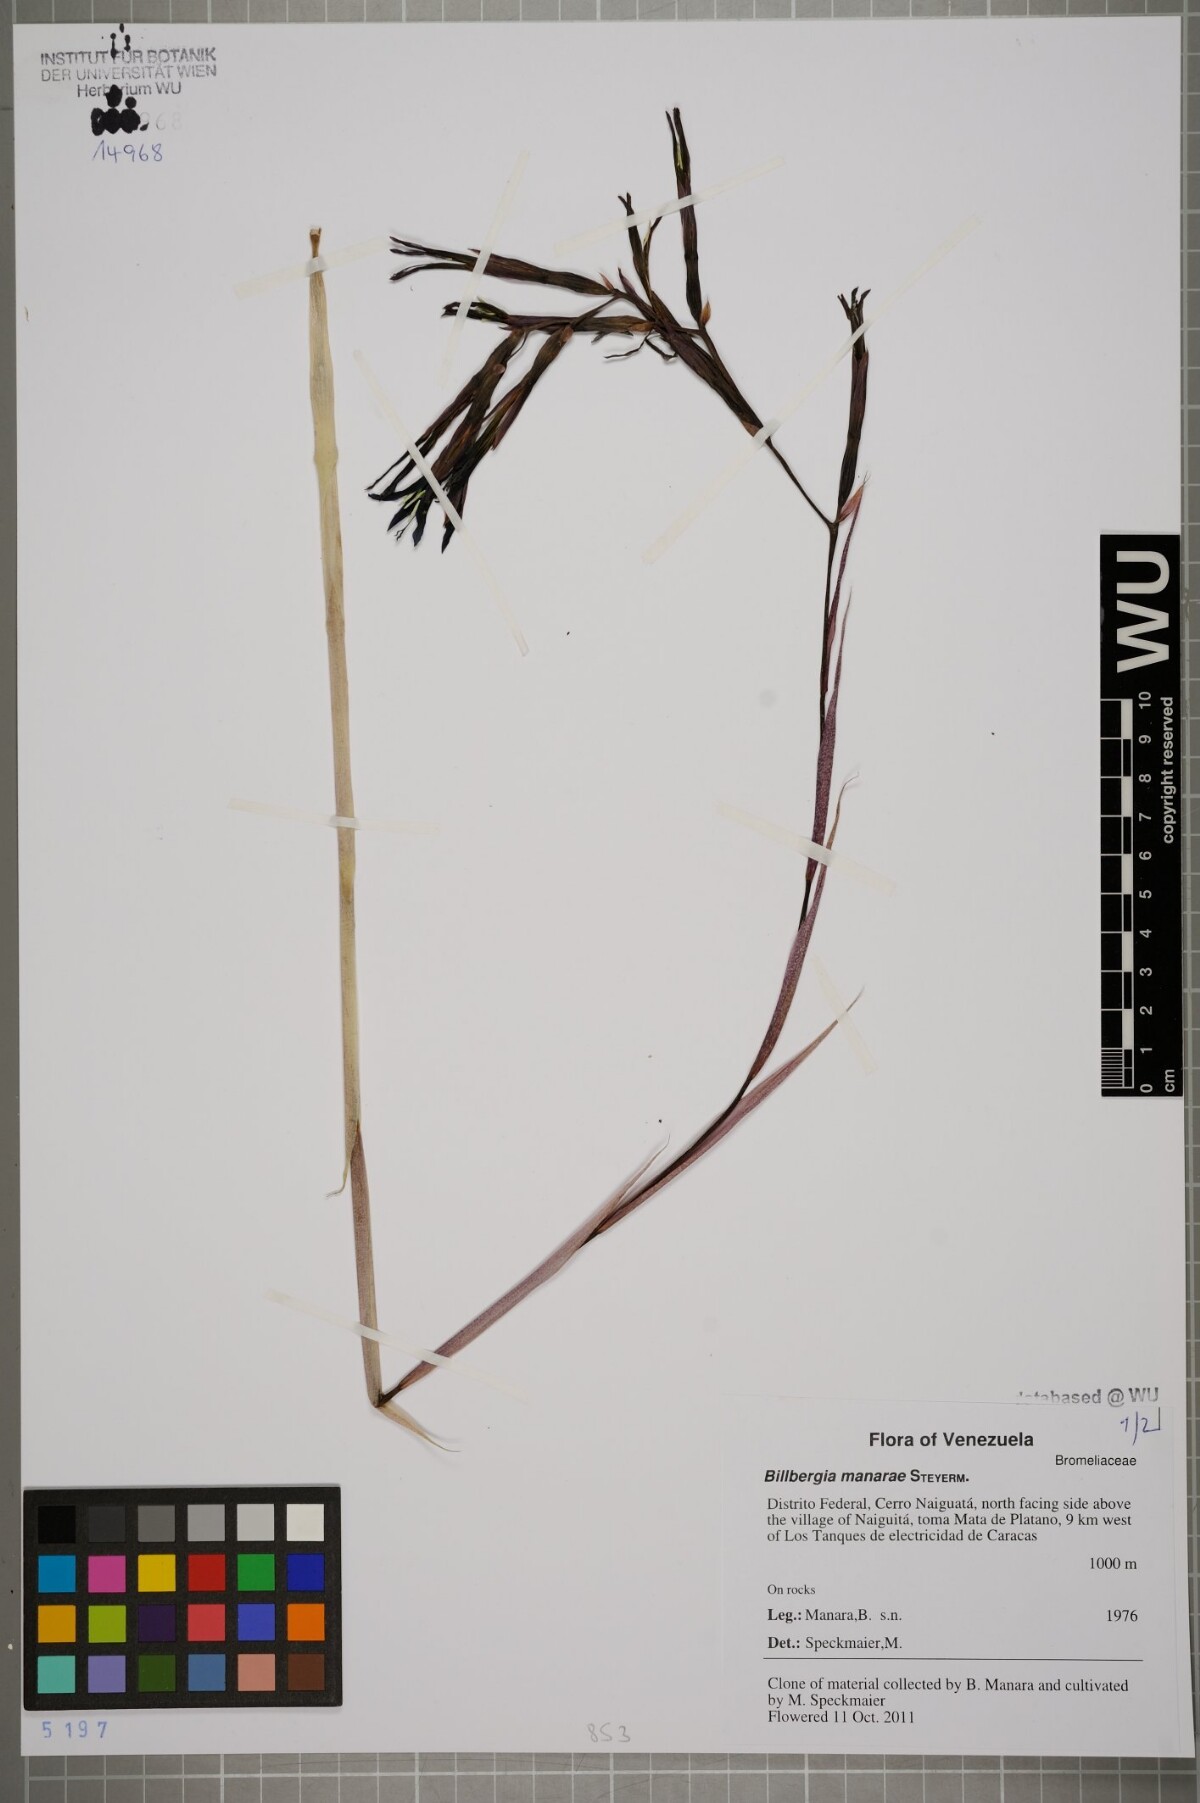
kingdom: Plantae
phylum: Tracheophyta
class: Liliopsida
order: Poales
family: Bromeliaceae
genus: Billbergia
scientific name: Billbergia manarae
